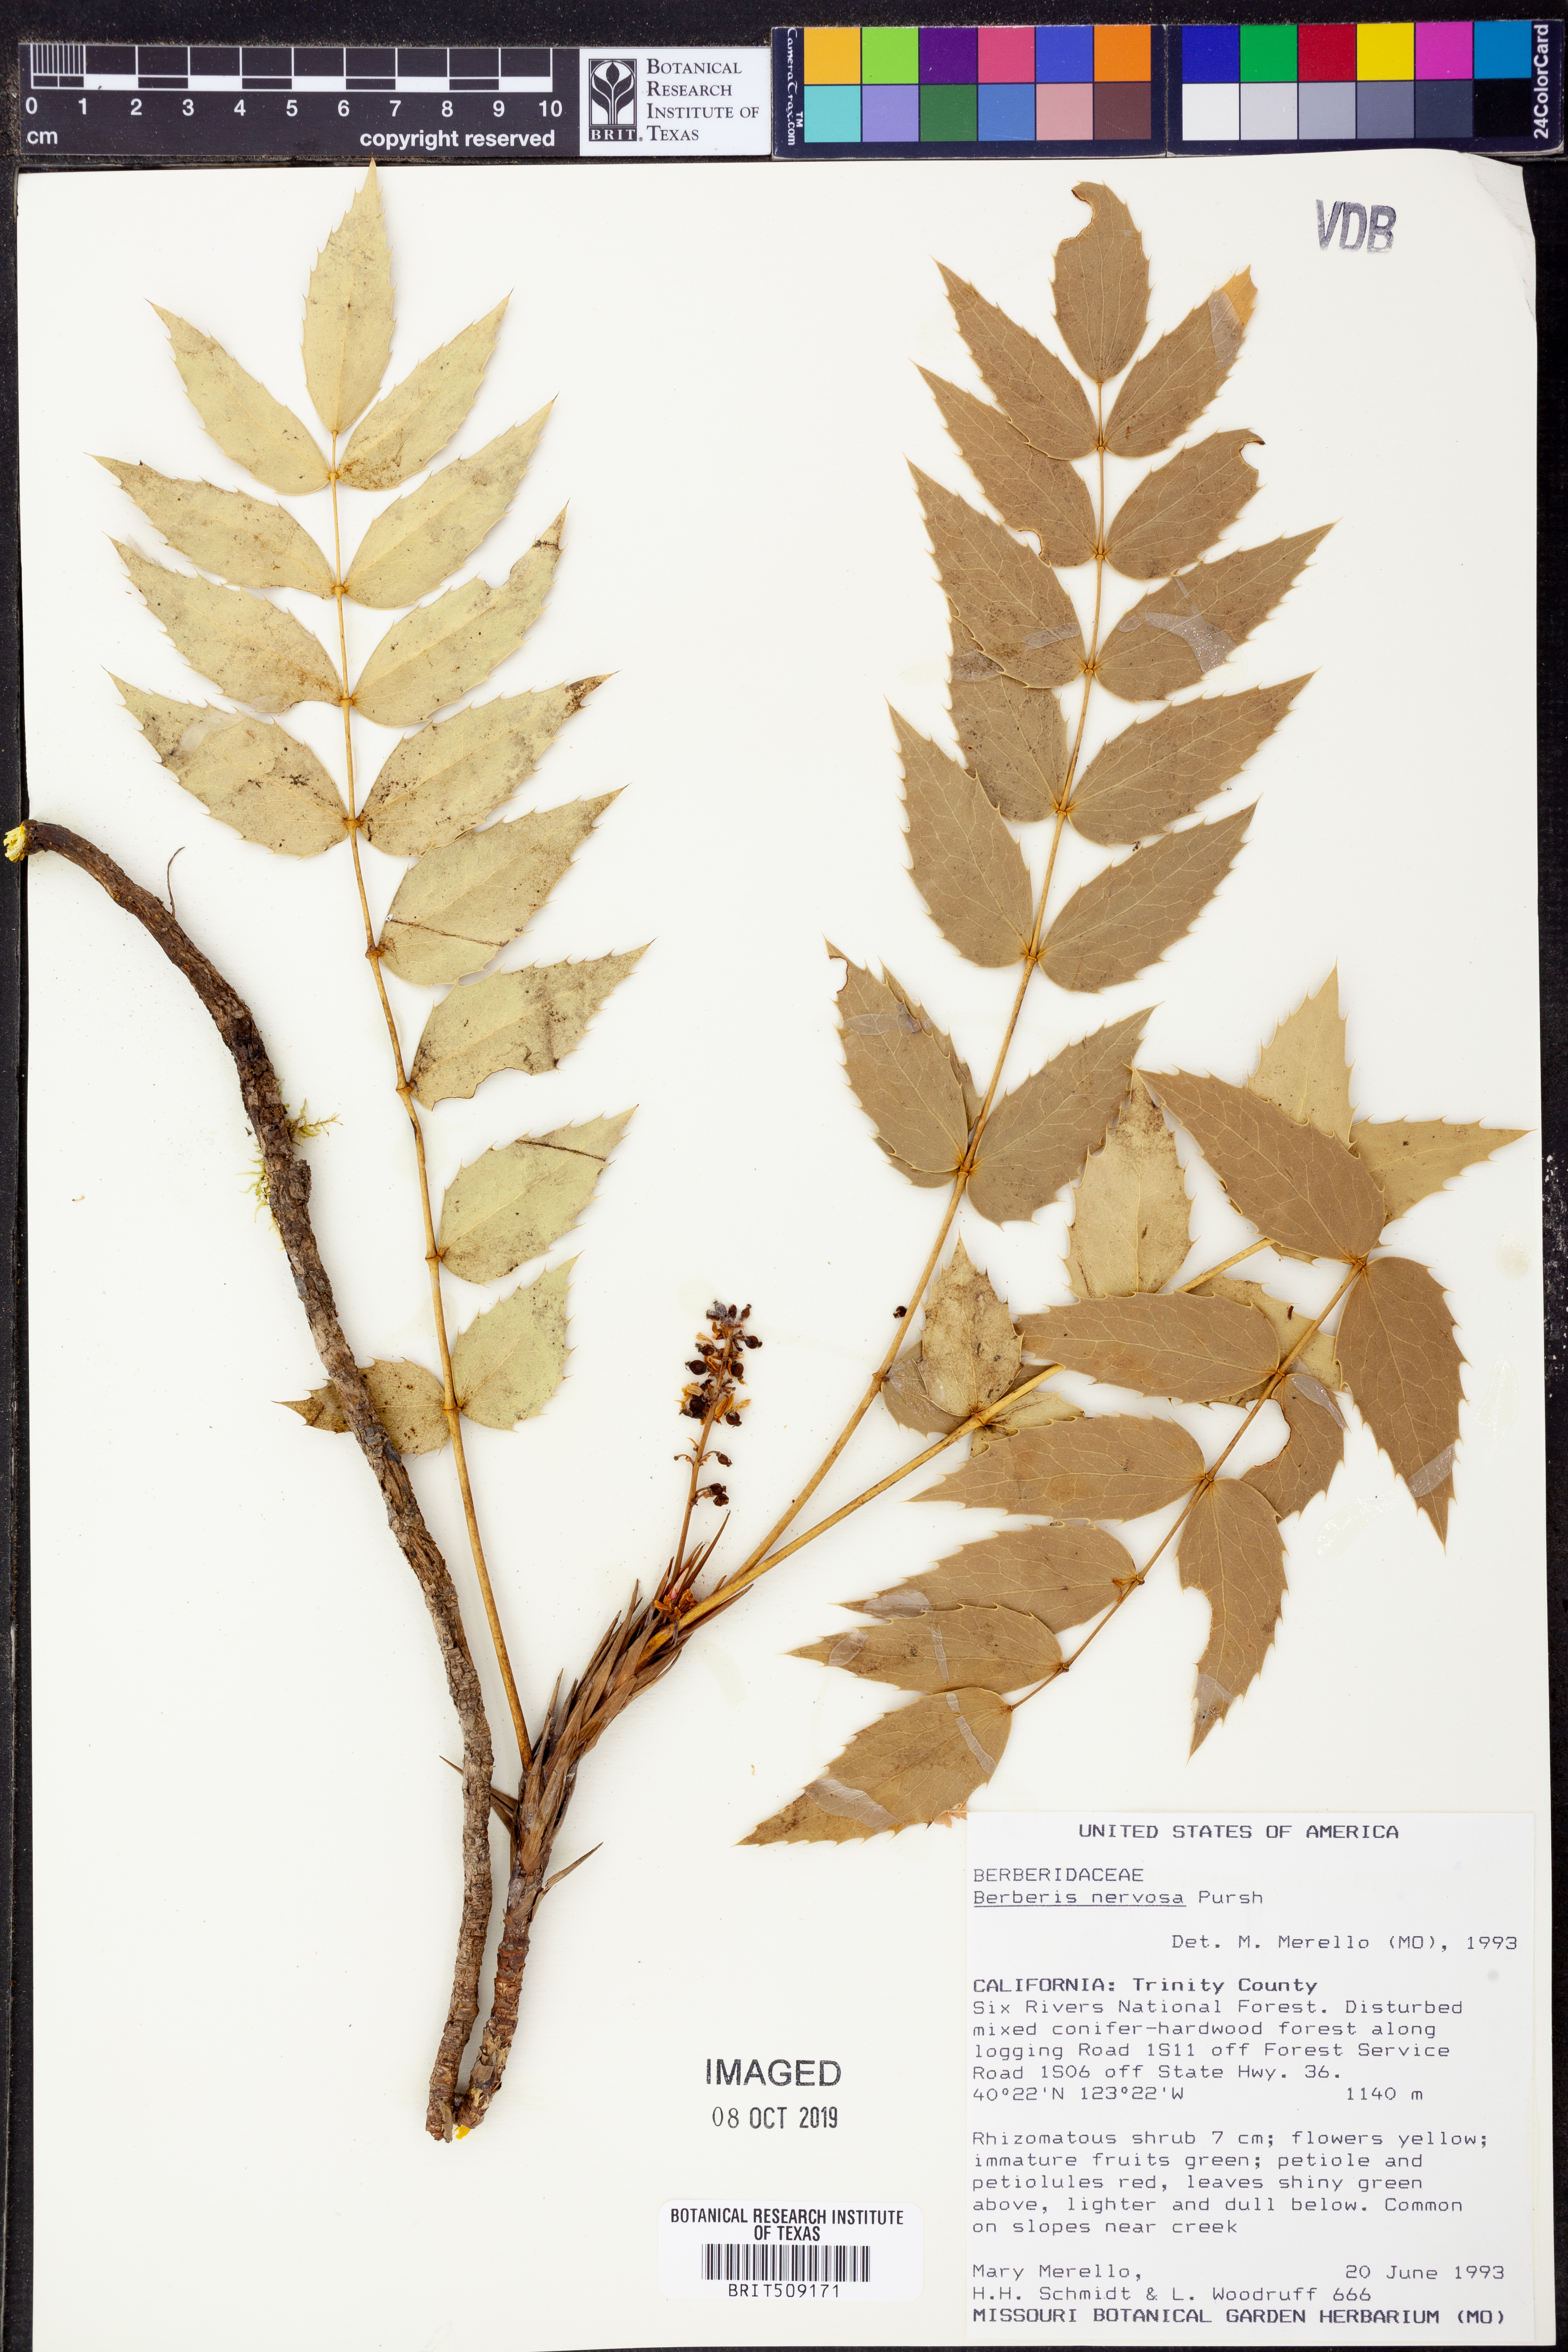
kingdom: Plantae
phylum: Tracheophyta
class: Magnoliopsida
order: Ranunculales
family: Berberidaceae
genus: Mahonia
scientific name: Mahonia nervosa
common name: Cascade oregon-grape
